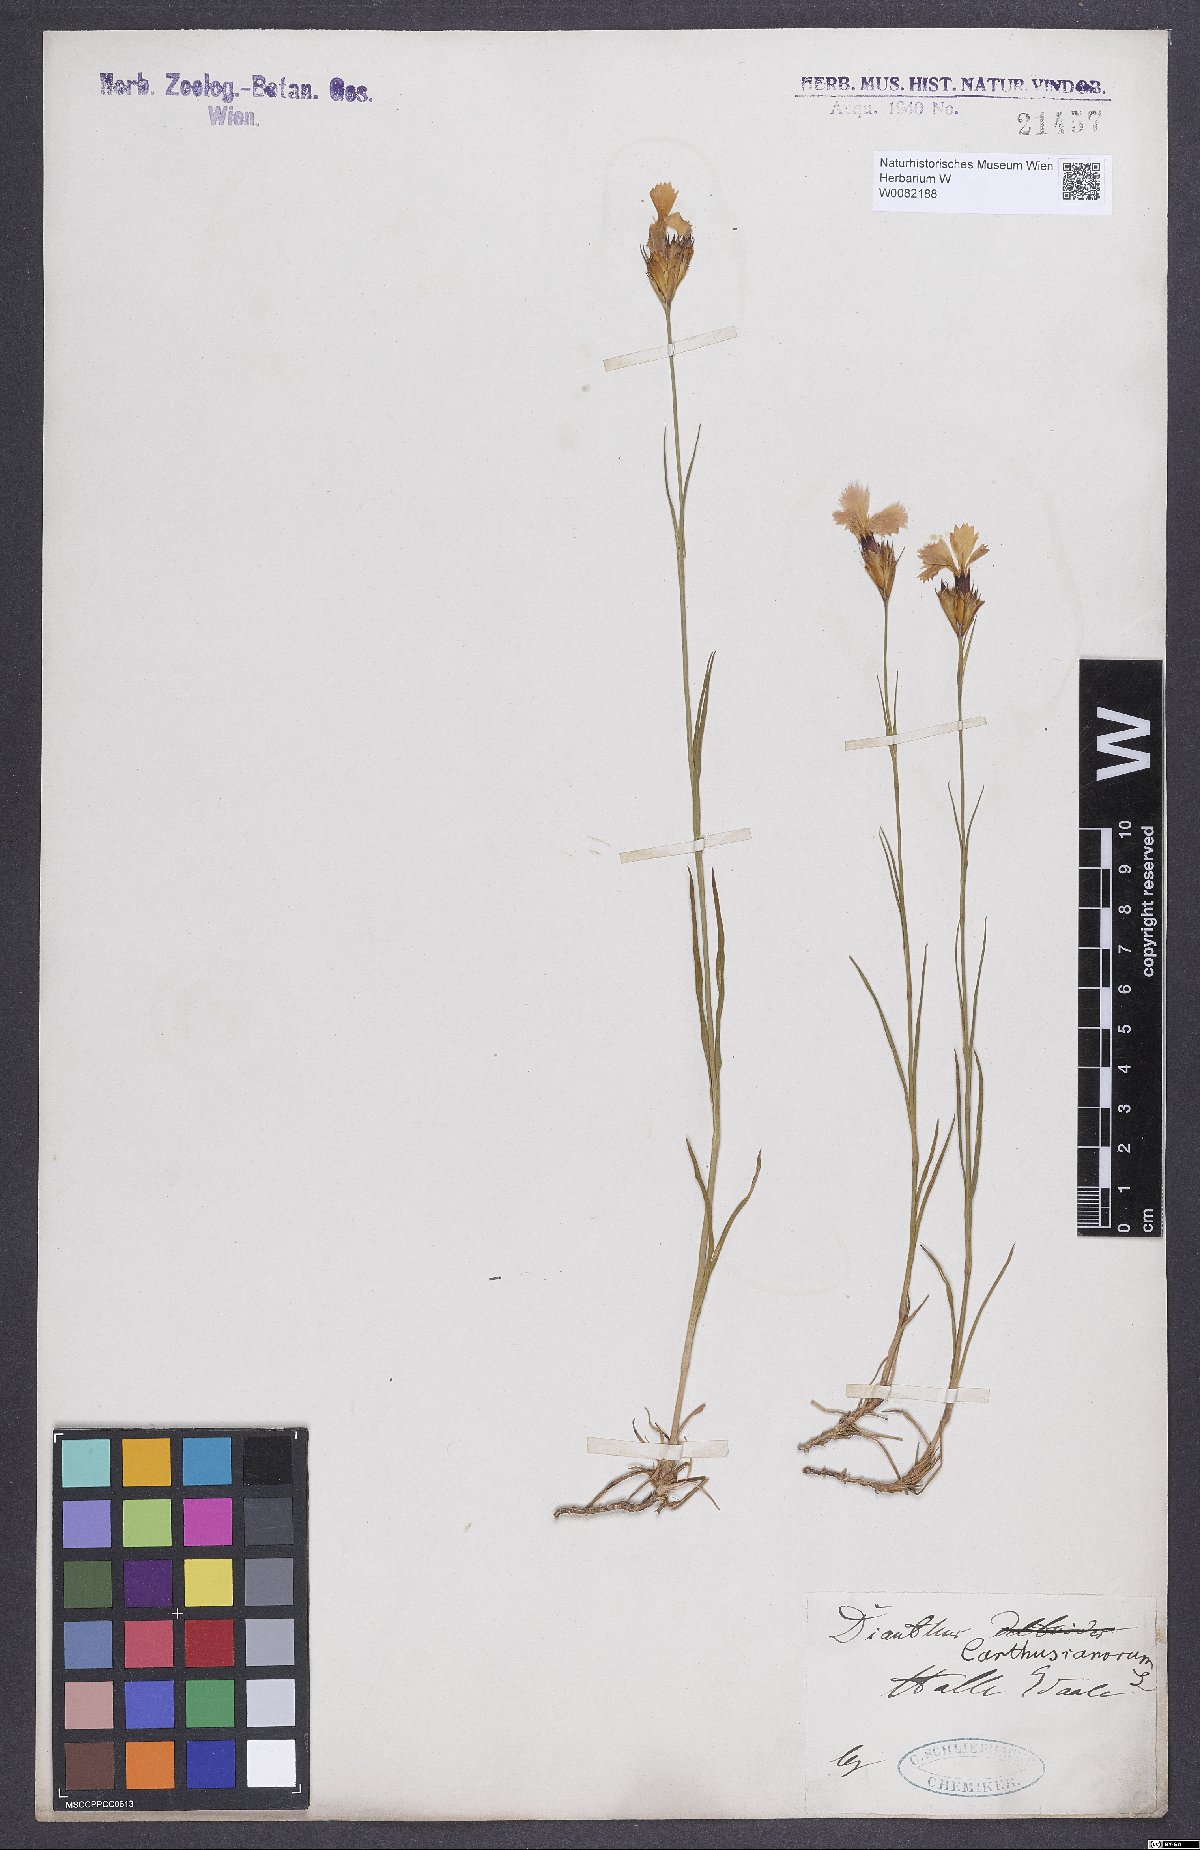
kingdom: Plantae
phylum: Tracheophyta
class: Magnoliopsida
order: Caryophyllales
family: Caryophyllaceae
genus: Dianthus
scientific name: Dianthus carthusianorum
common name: Carthusian pink
